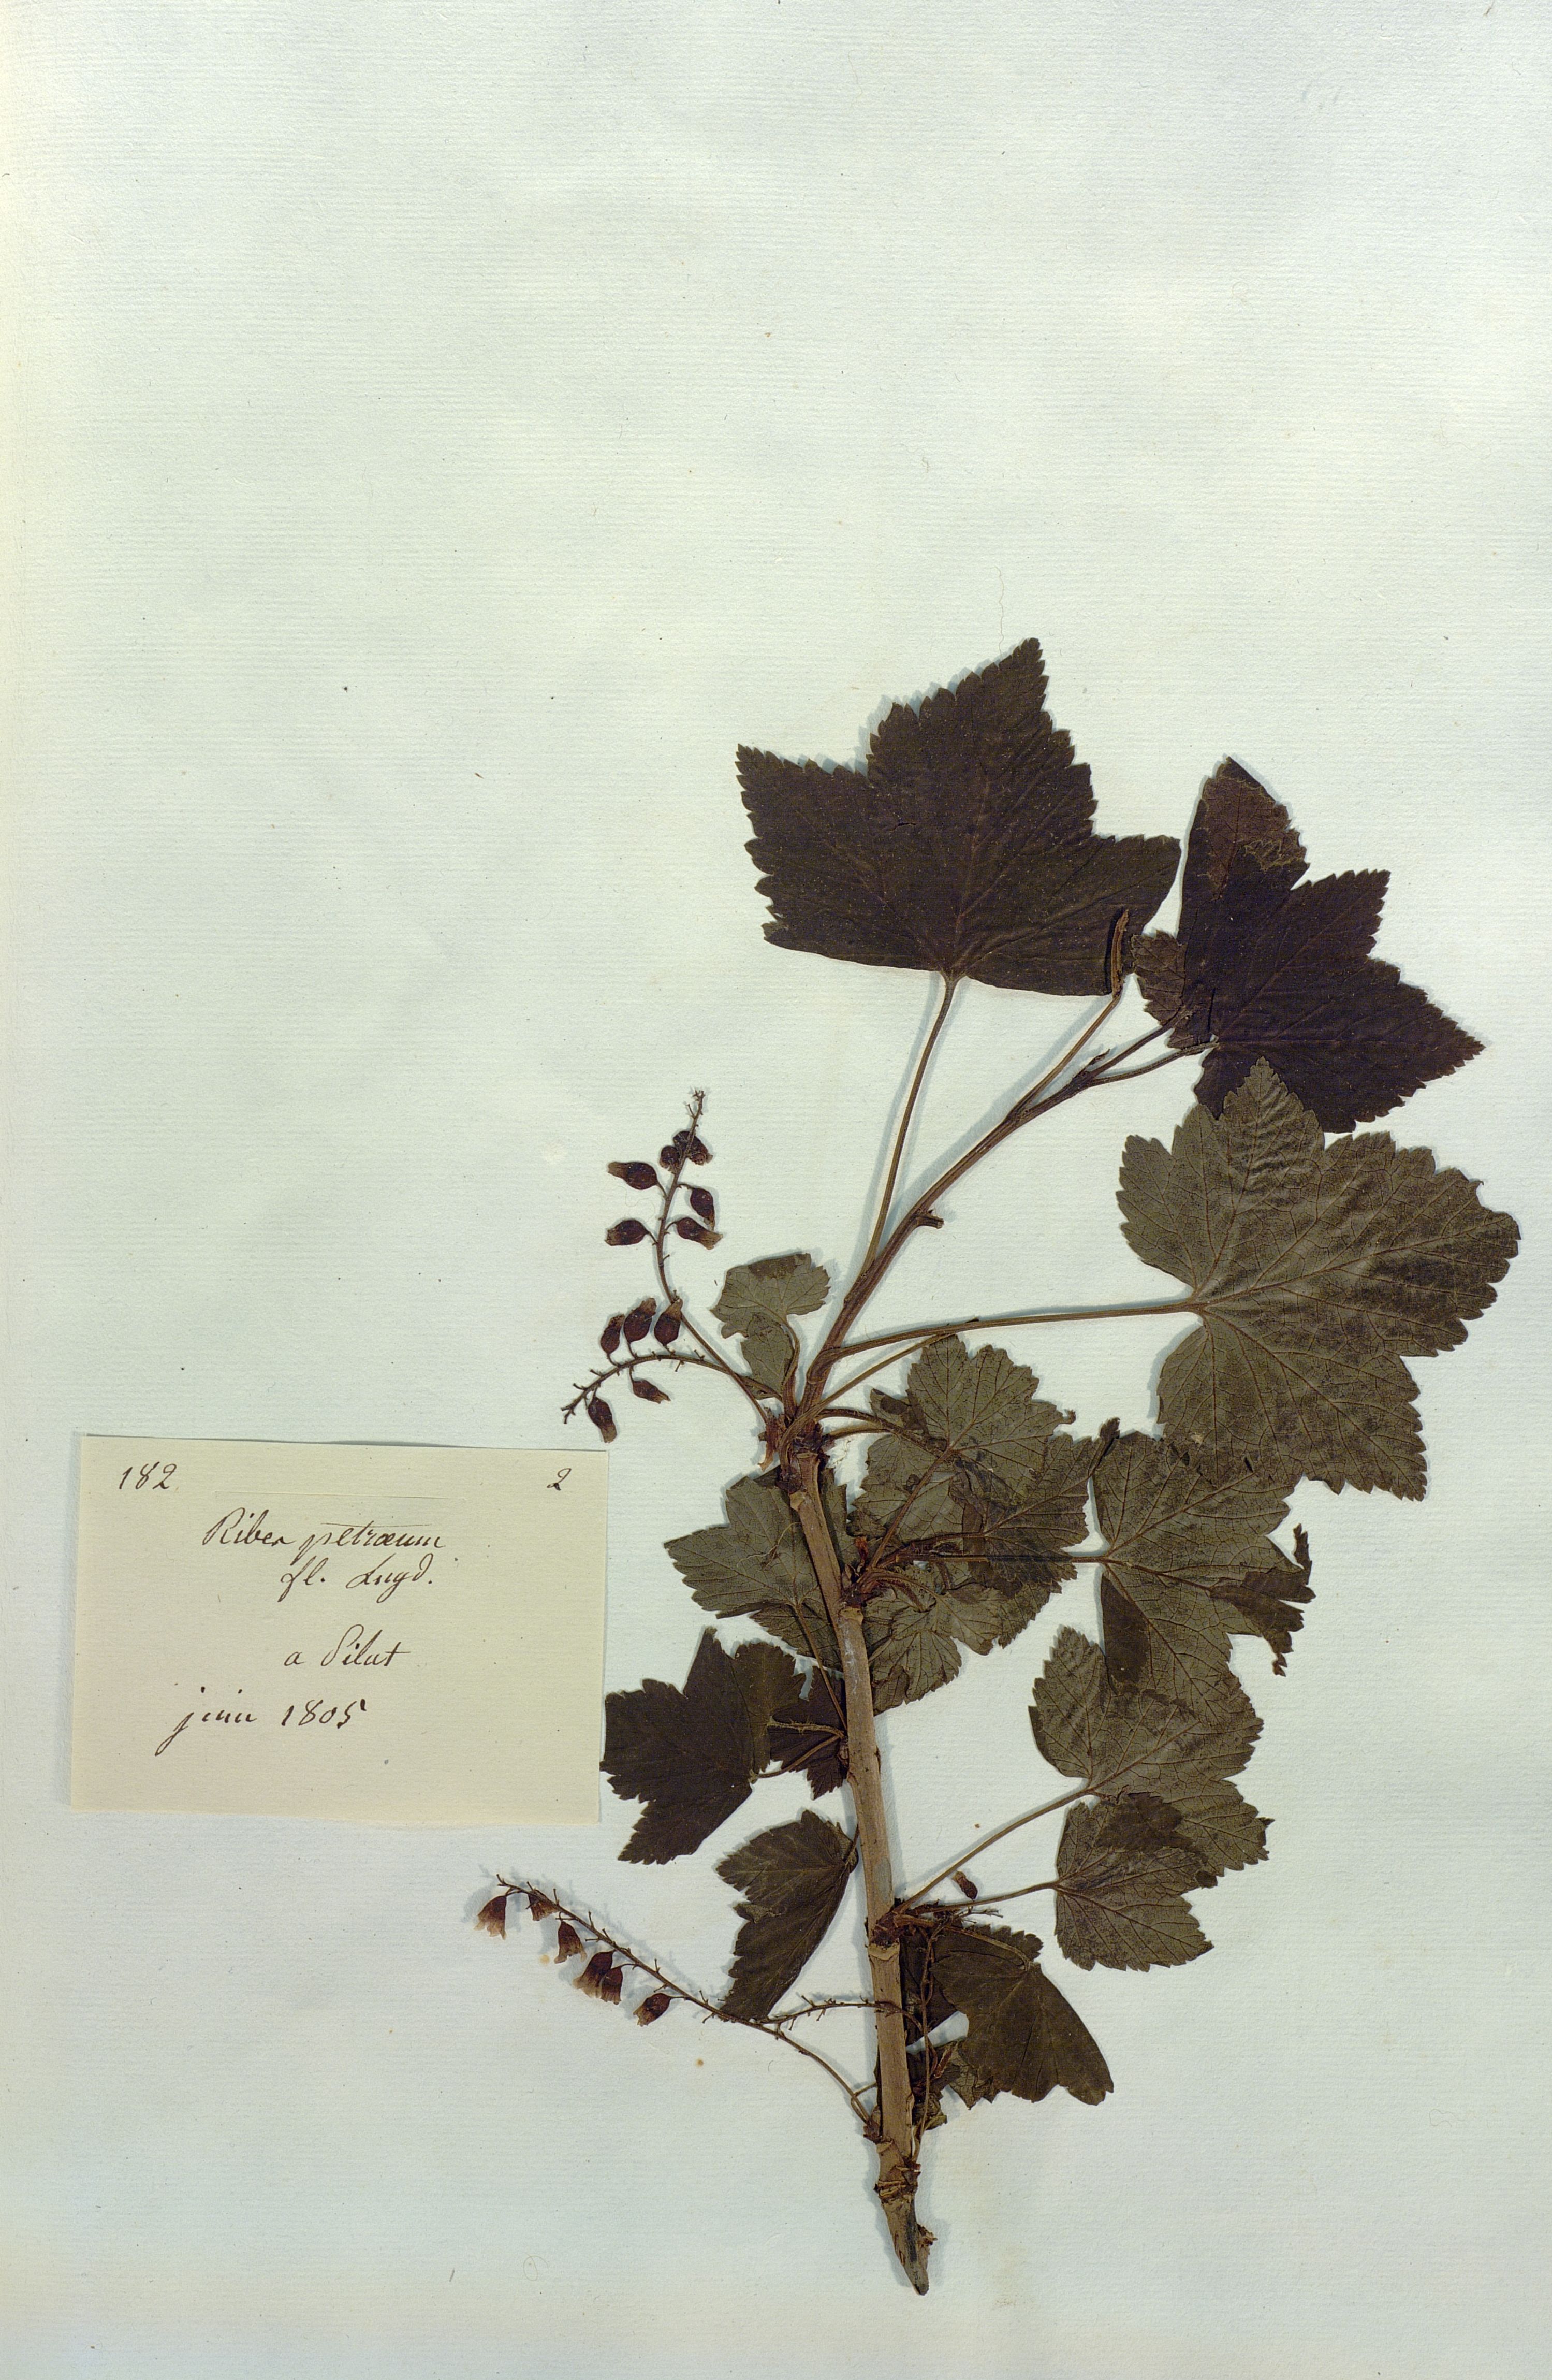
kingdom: Plantae
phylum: Tracheophyta
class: Magnoliopsida
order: Saxifragales
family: Grossulariaceae
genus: Ribes
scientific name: Ribes petraeum
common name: Rock currant
